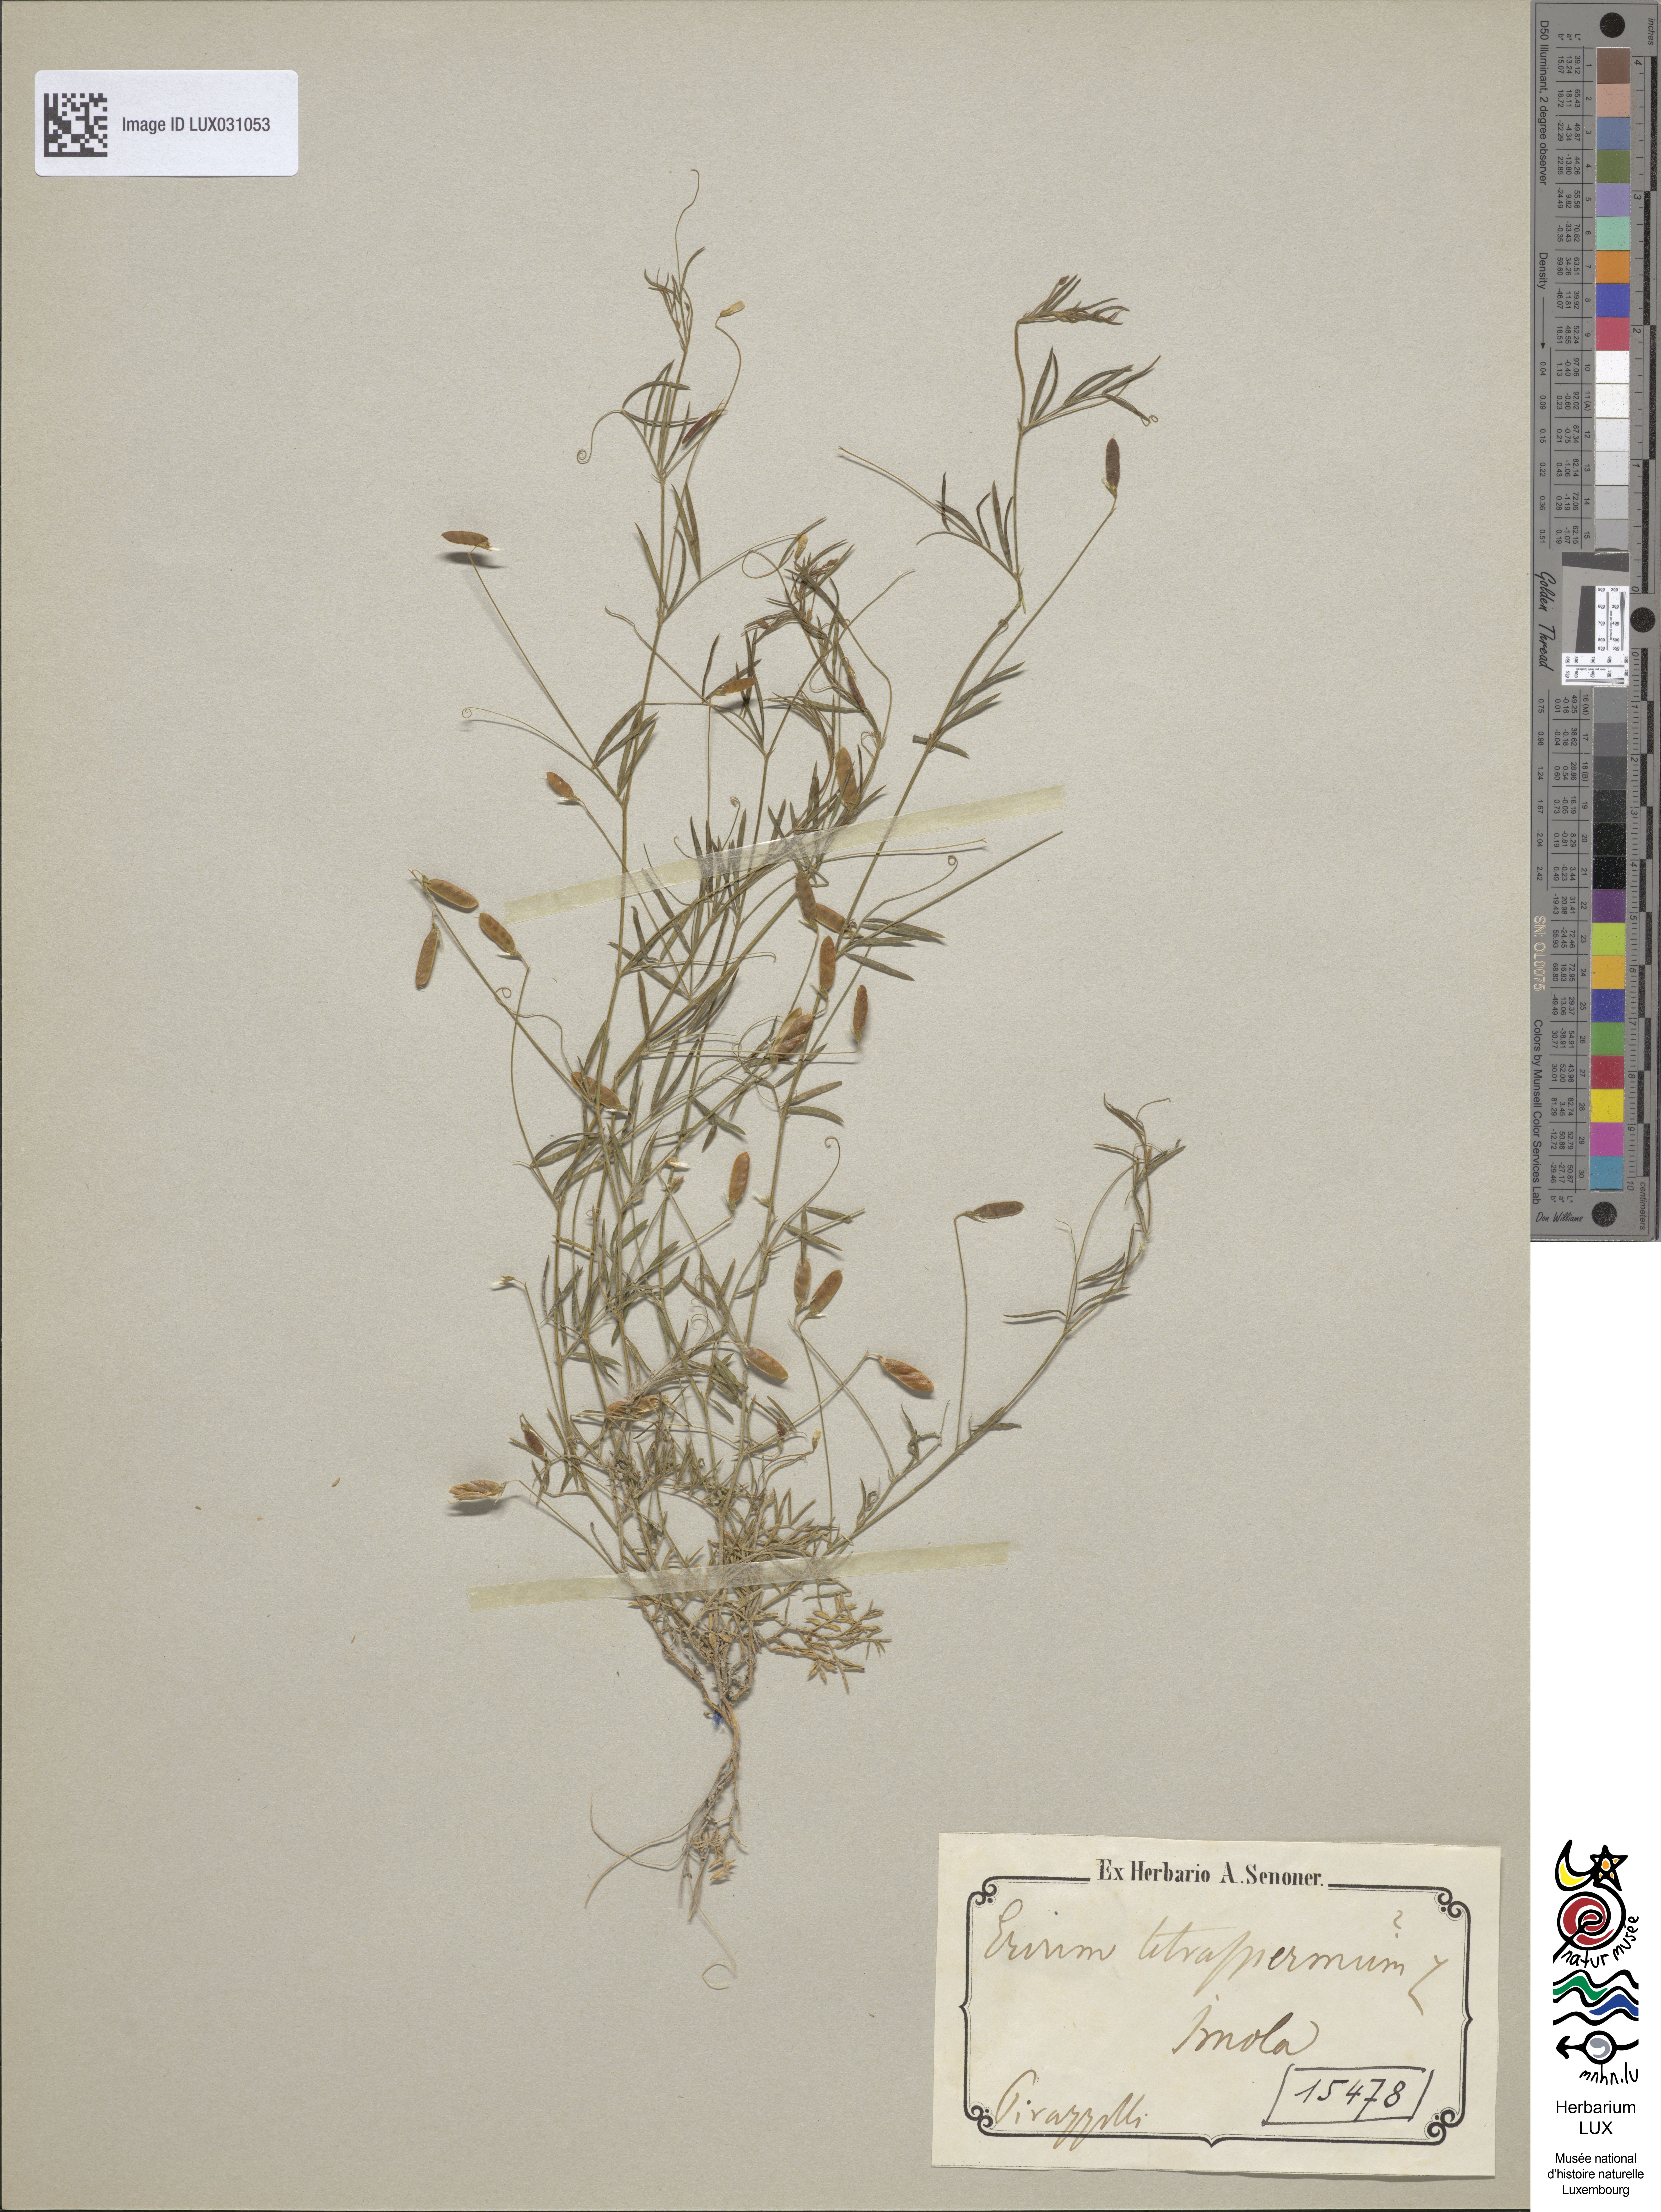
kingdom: Plantae
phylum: Tracheophyta
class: Magnoliopsida
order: Fabales
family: Fabaceae
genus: Vicia
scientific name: Vicia tetrasperma
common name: Smooth tare
